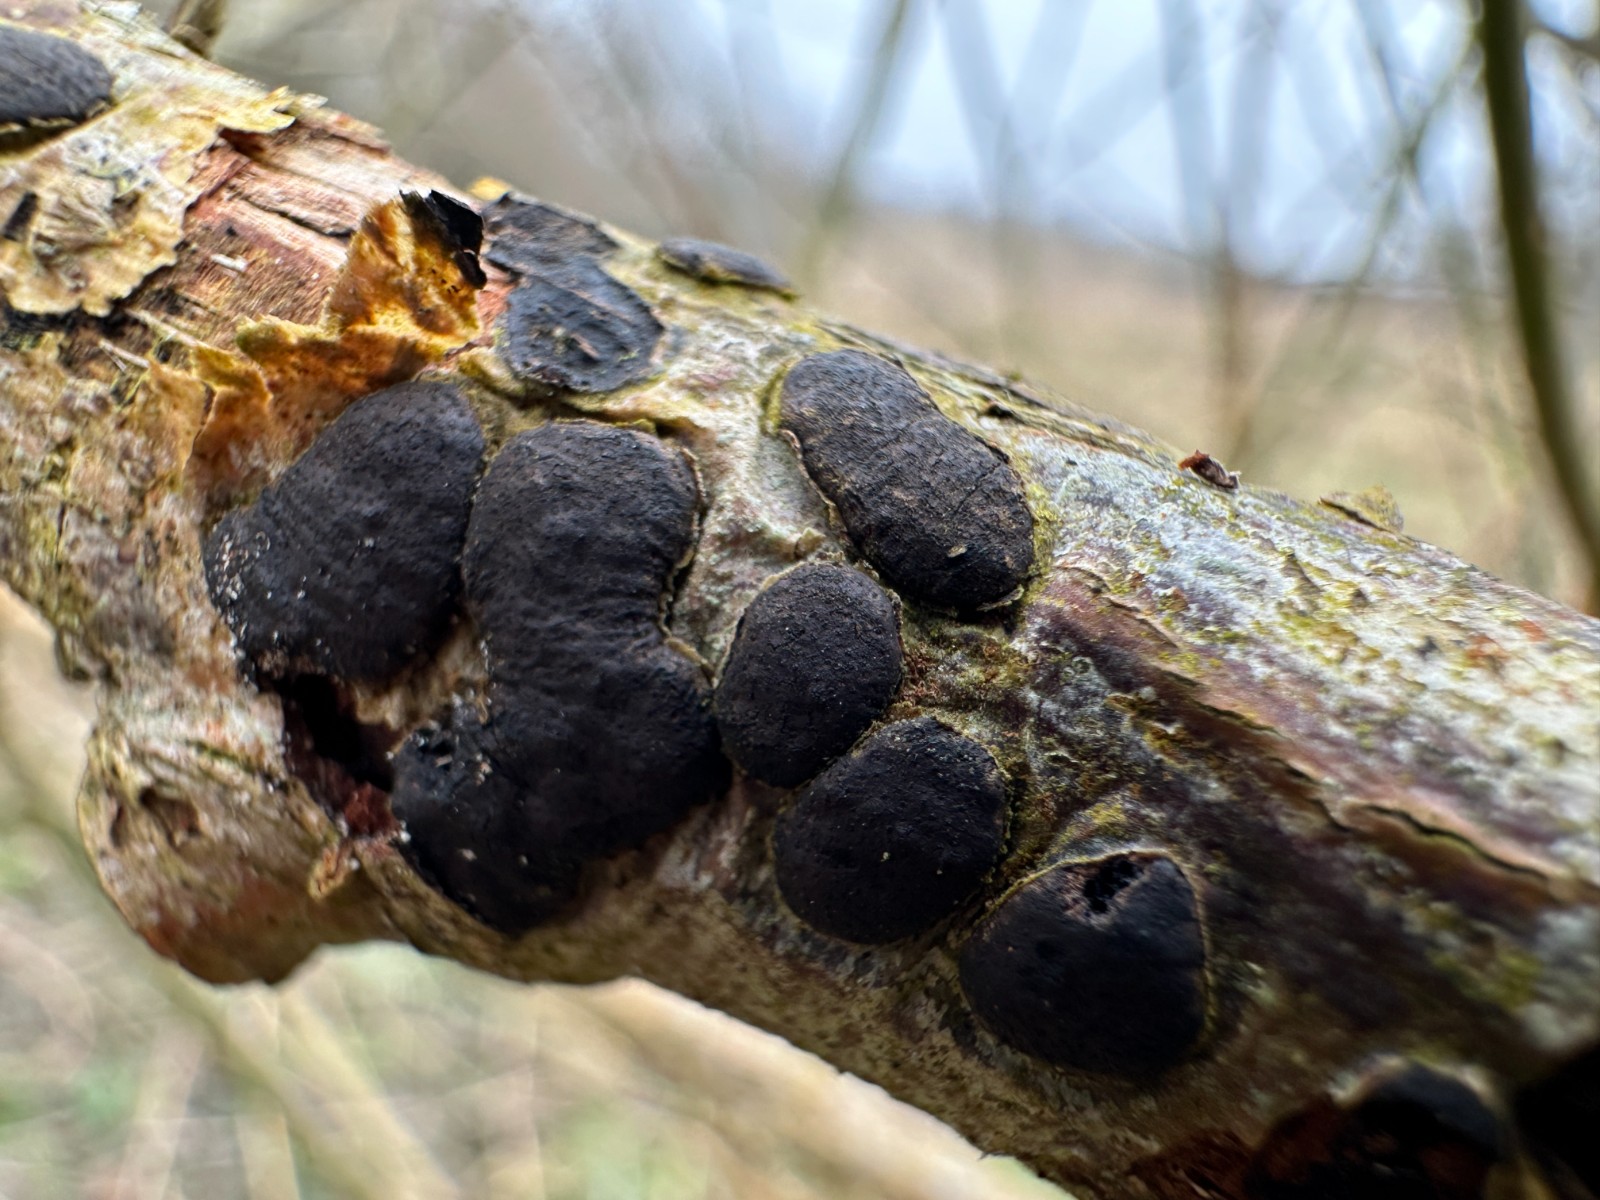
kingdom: Fungi
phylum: Ascomycota
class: Sordariomycetes
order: Xylariales
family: Diatrypaceae
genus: Diatrype
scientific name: Diatrype bullata
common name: pile-kulskorpe
